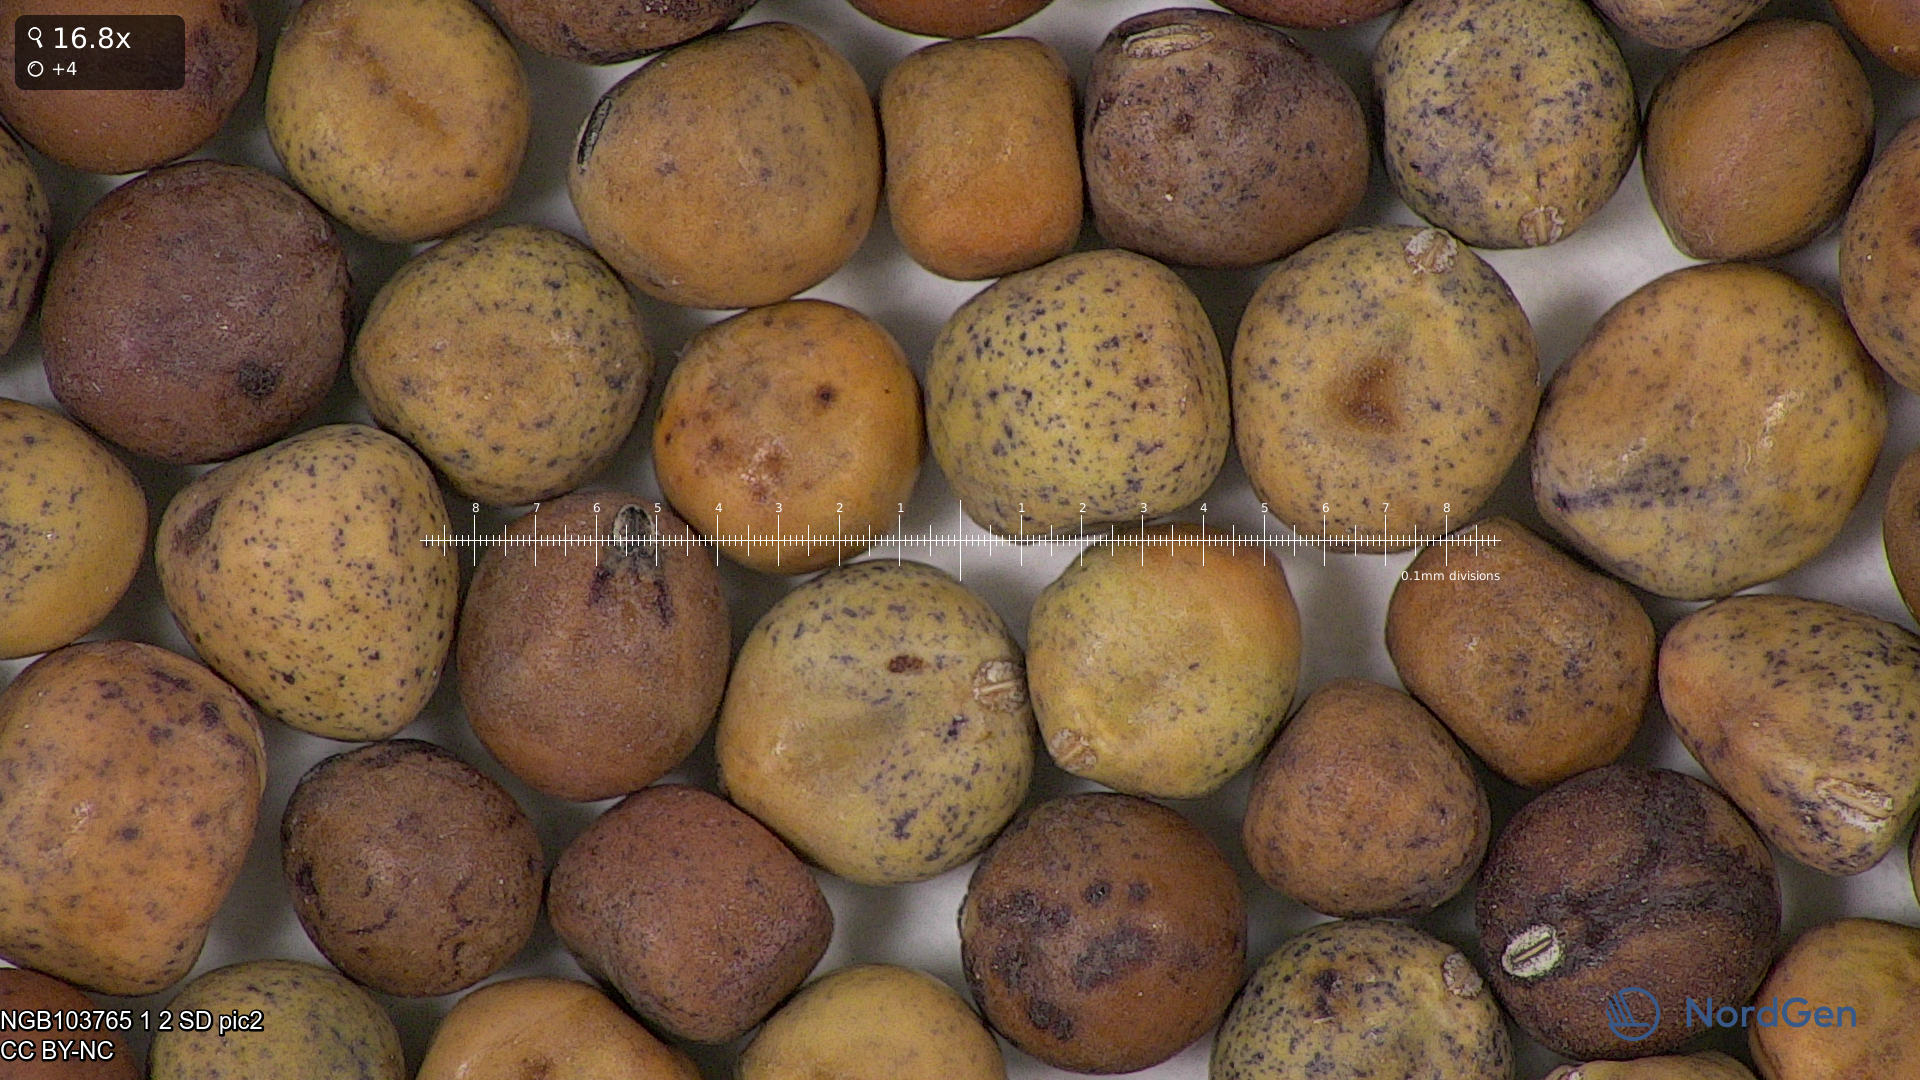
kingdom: Plantae
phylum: Tracheophyta
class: Magnoliopsida
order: Fabales
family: Fabaceae
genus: Lathyrus
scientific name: Lathyrus oleraceus
